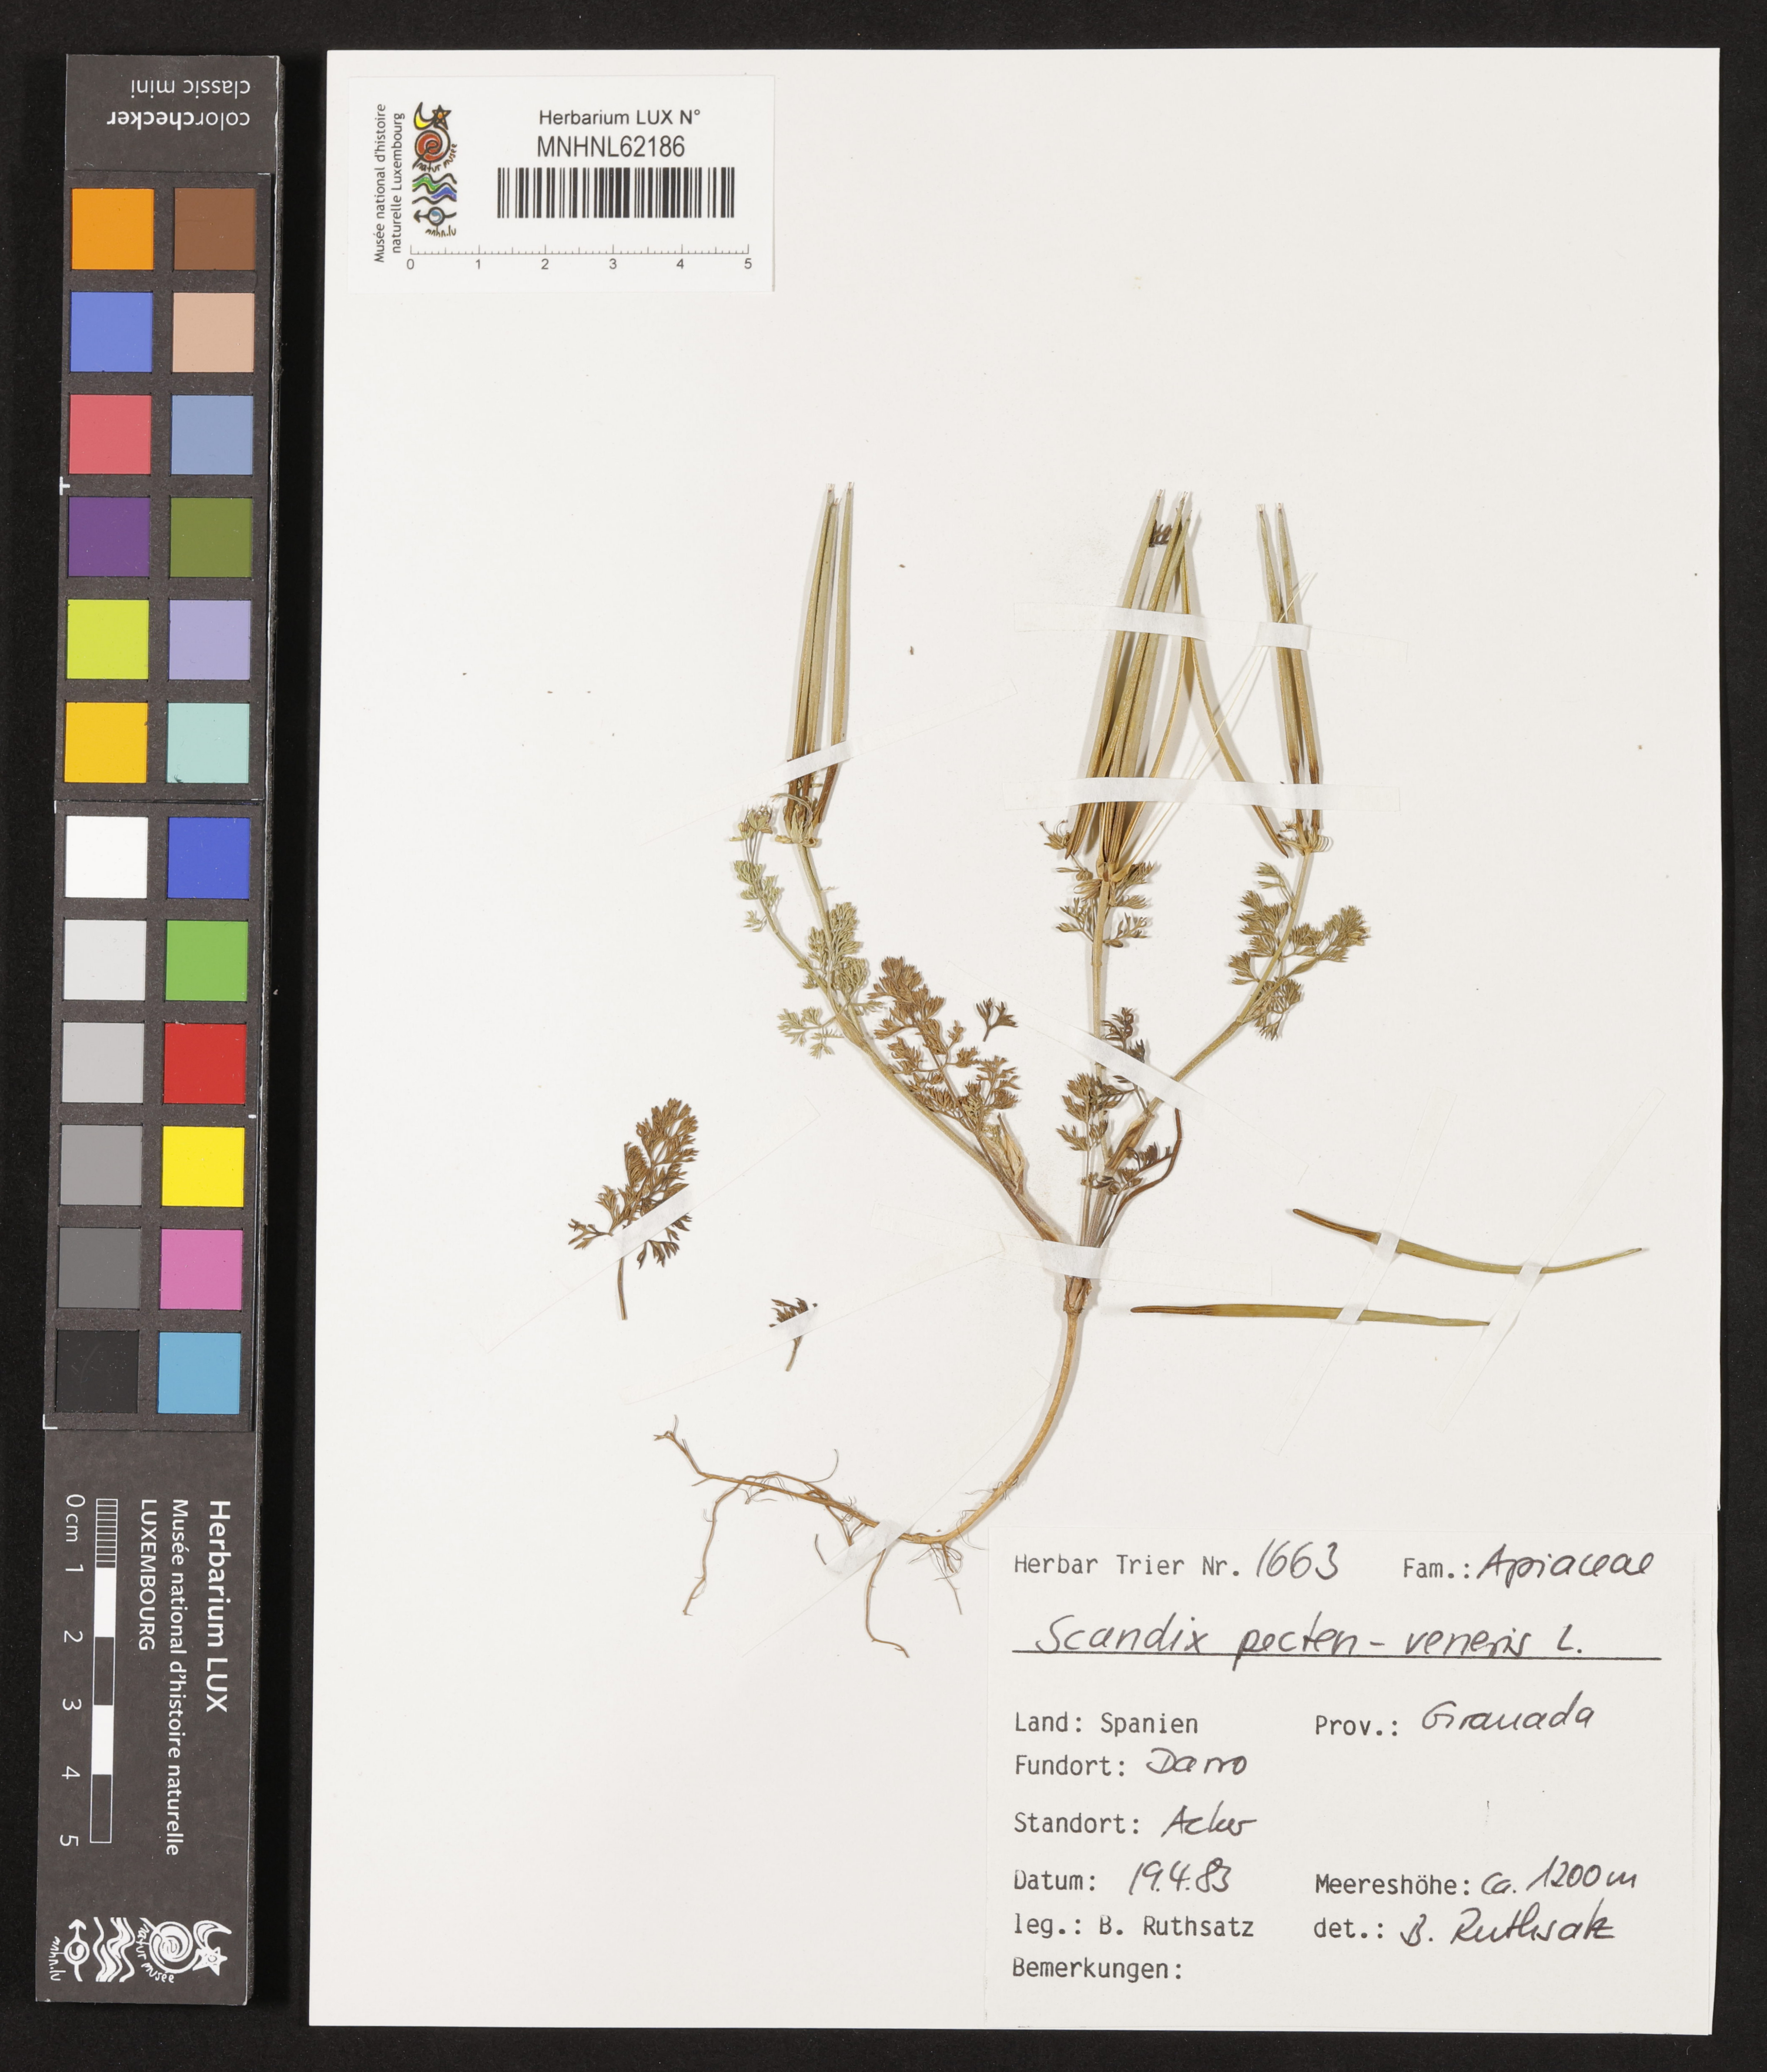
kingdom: Plantae
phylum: Tracheophyta
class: Magnoliopsida
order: Apiales
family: Apiaceae
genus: Scandix
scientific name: Scandix pecten-veneris
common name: Shepherd's-needle
